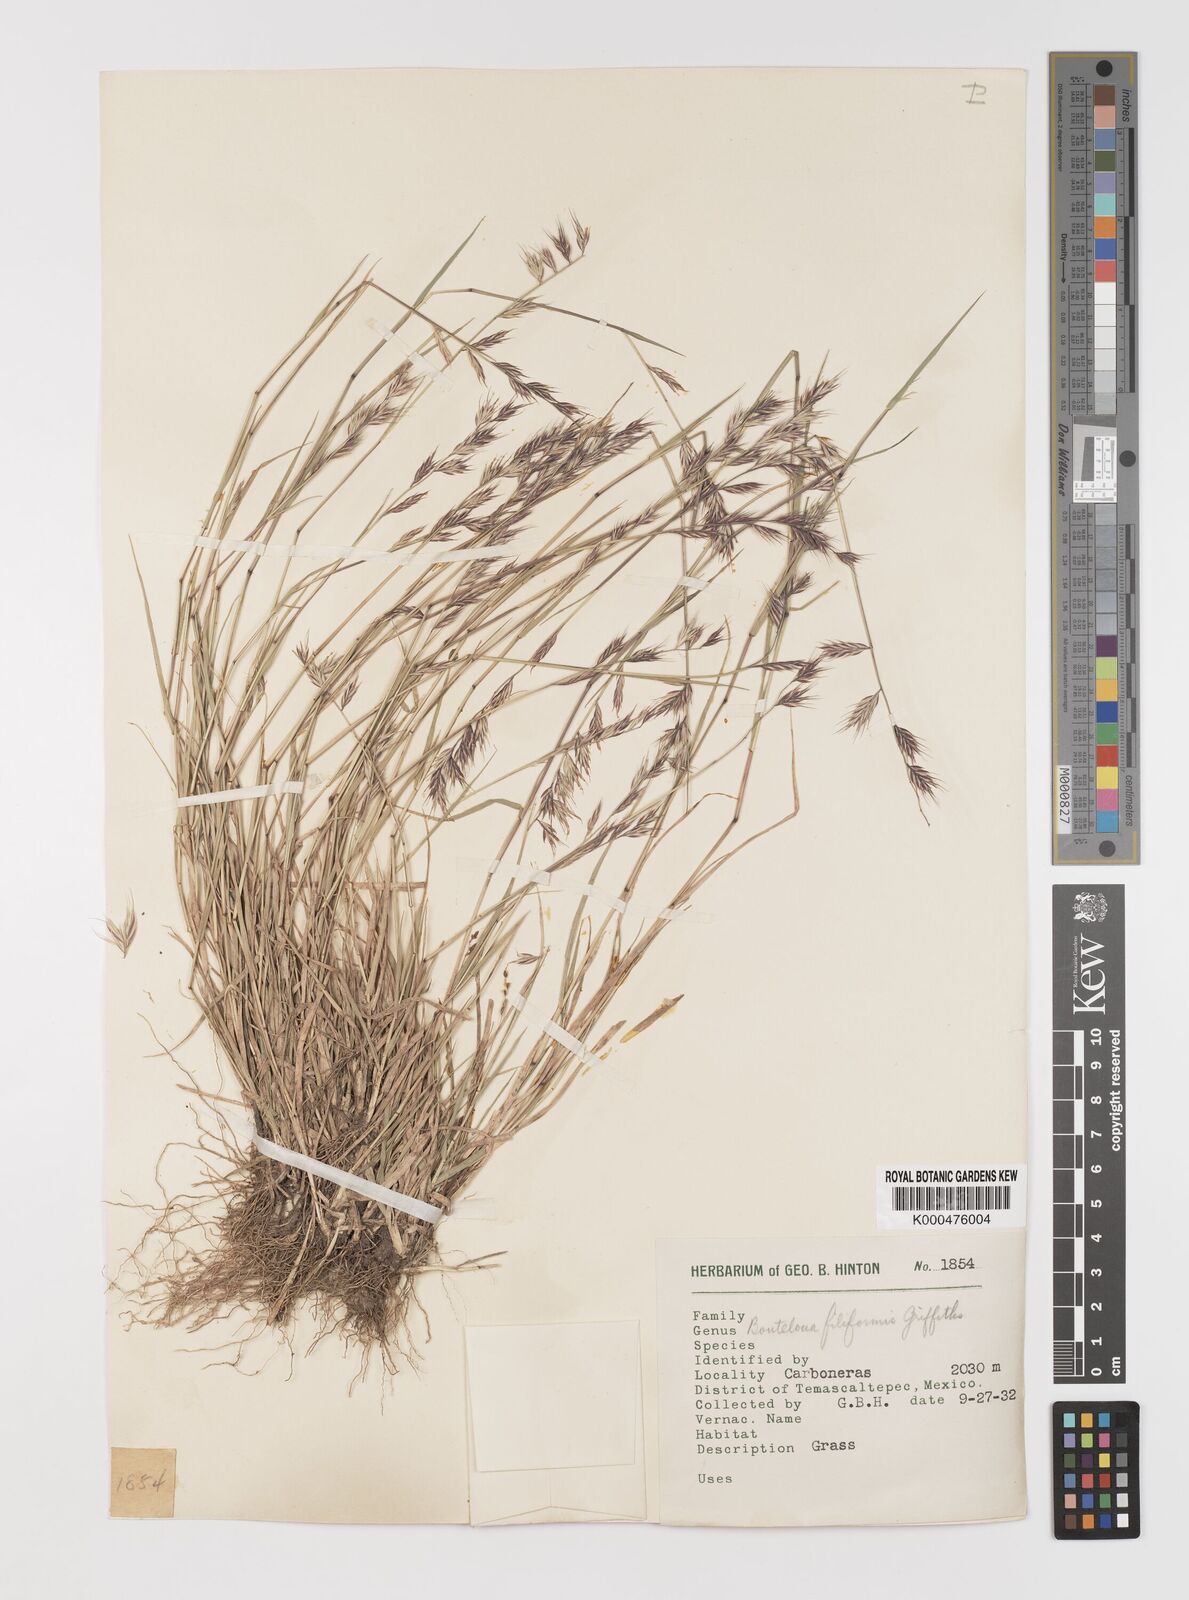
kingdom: Plantae
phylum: Tracheophyta
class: Liliopsida
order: Poales
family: Poaceae
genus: Bouteloua
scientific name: Bouteloua repens
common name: Slender grama
